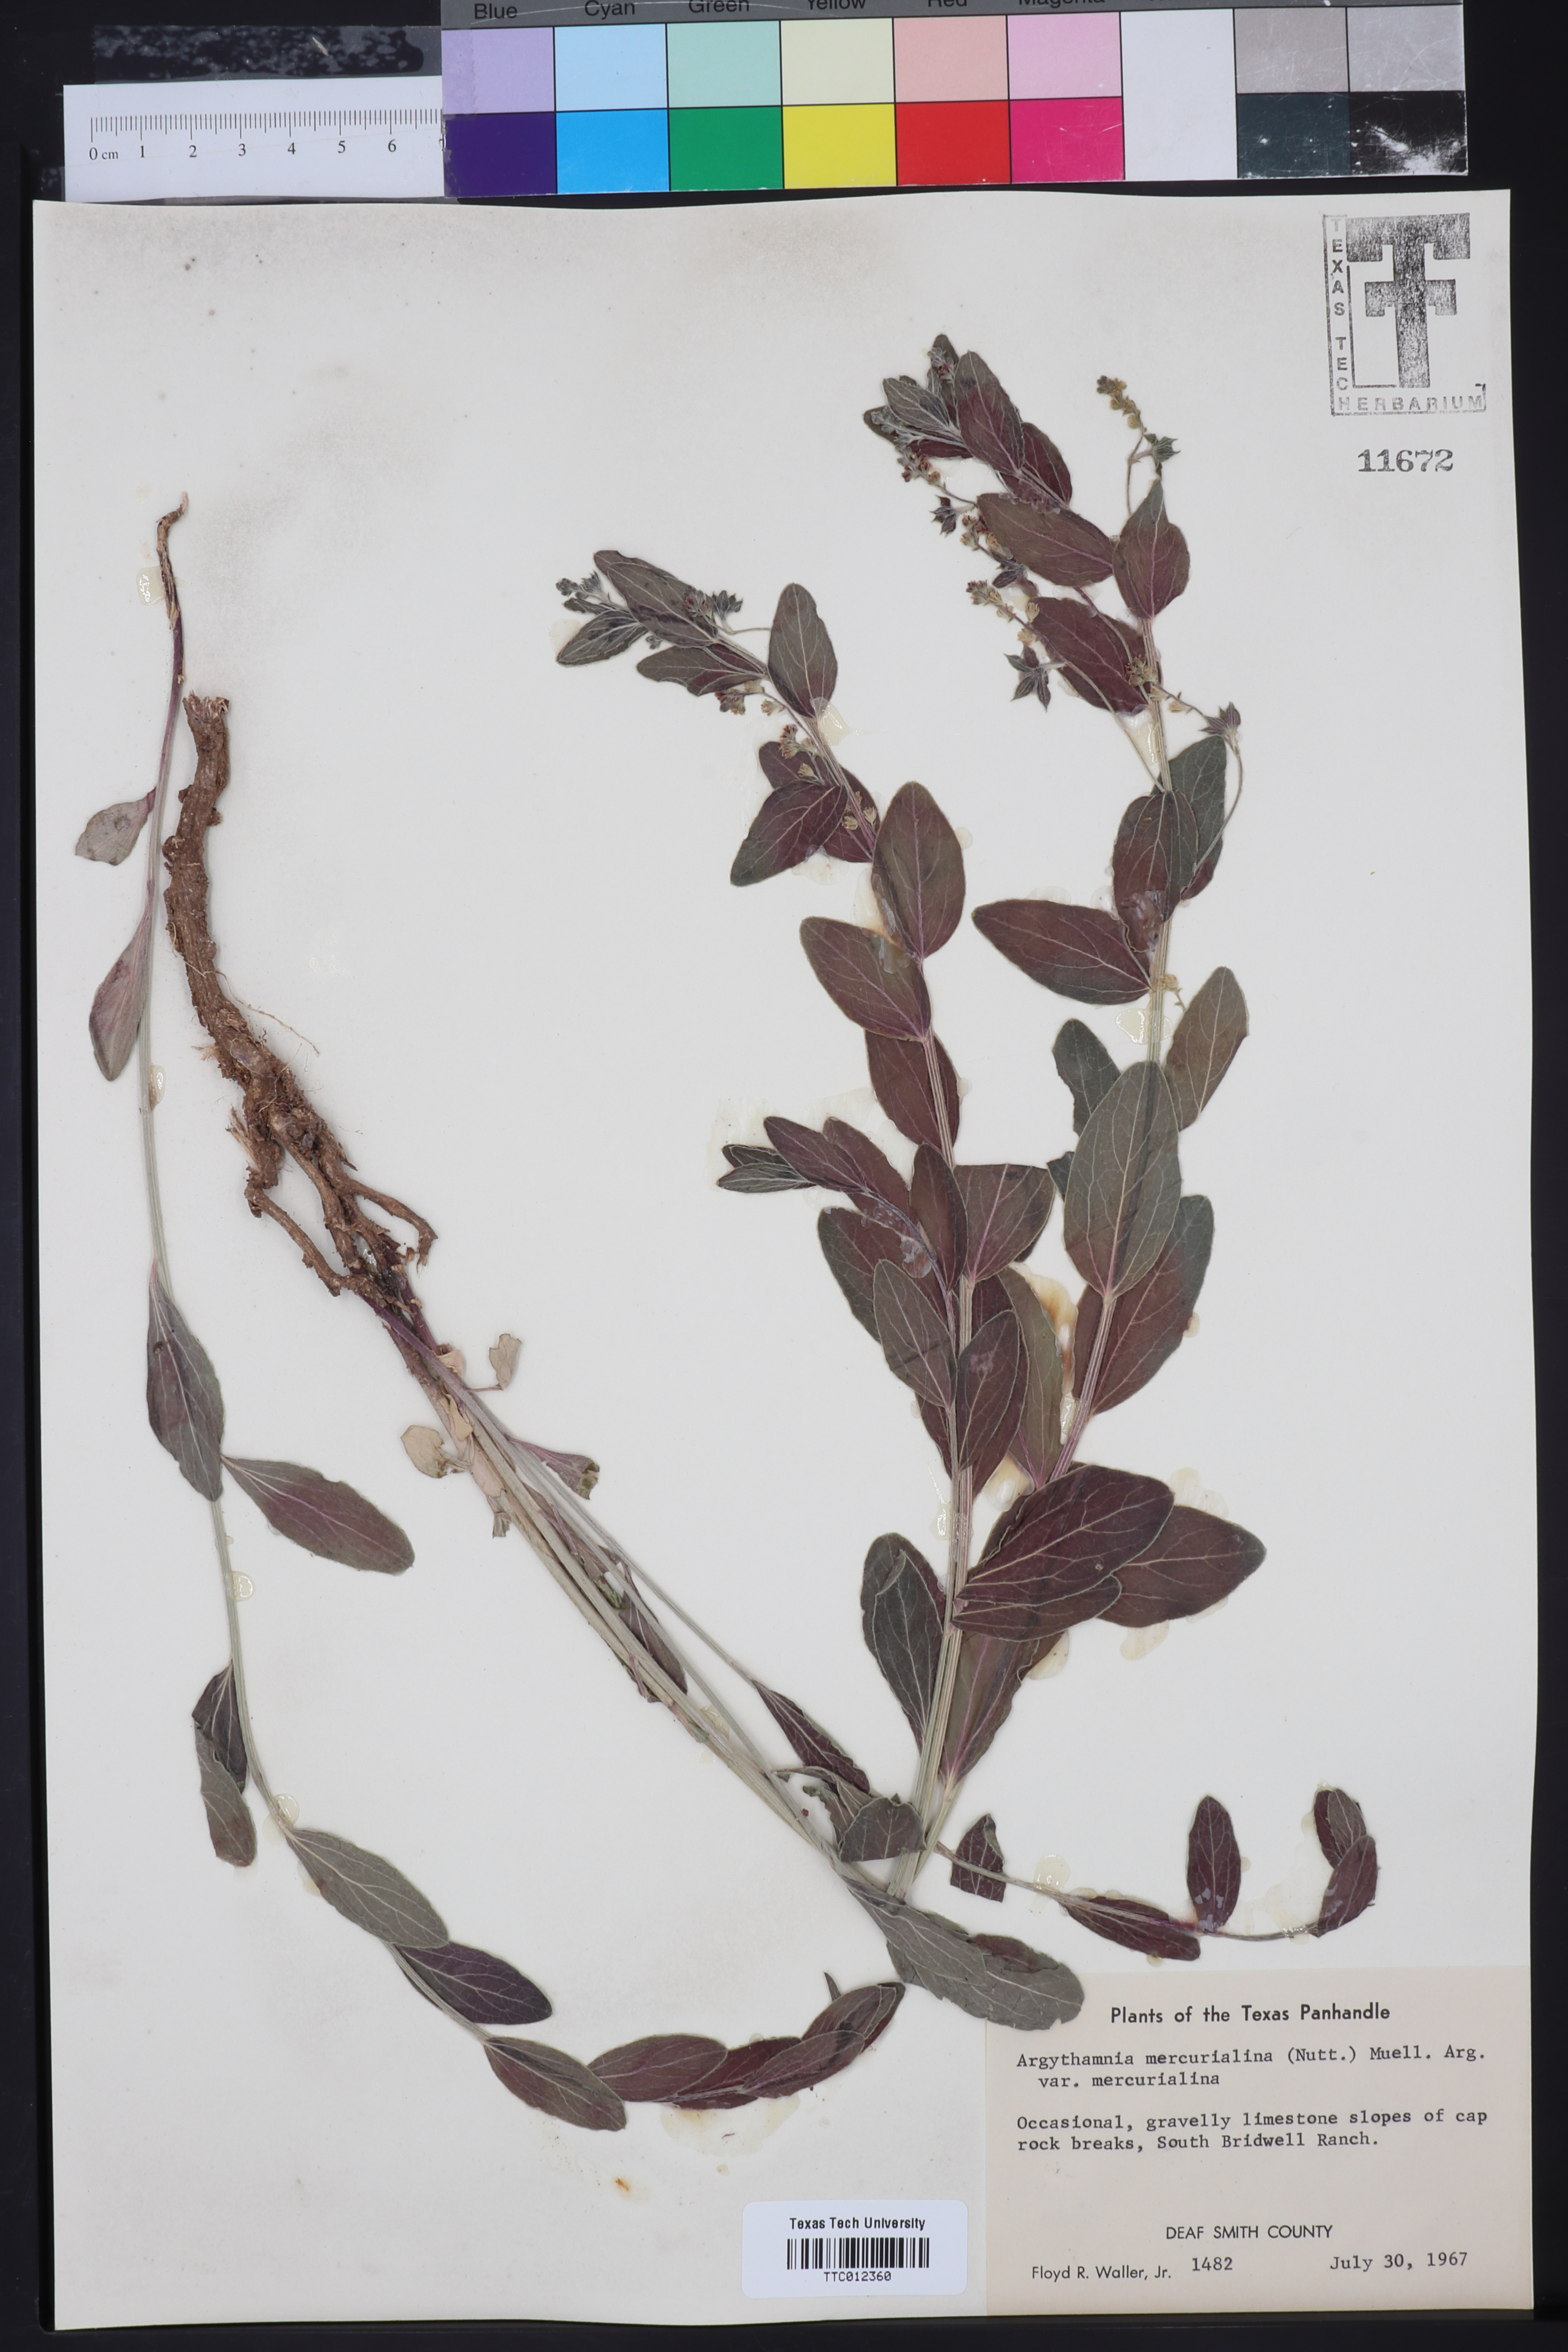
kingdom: Plantae
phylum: Tracheophyta
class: Magnoliopsida
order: Malpighiales
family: Euphorbiaceae
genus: Ditaxis
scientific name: Ditaxis mercurialina
